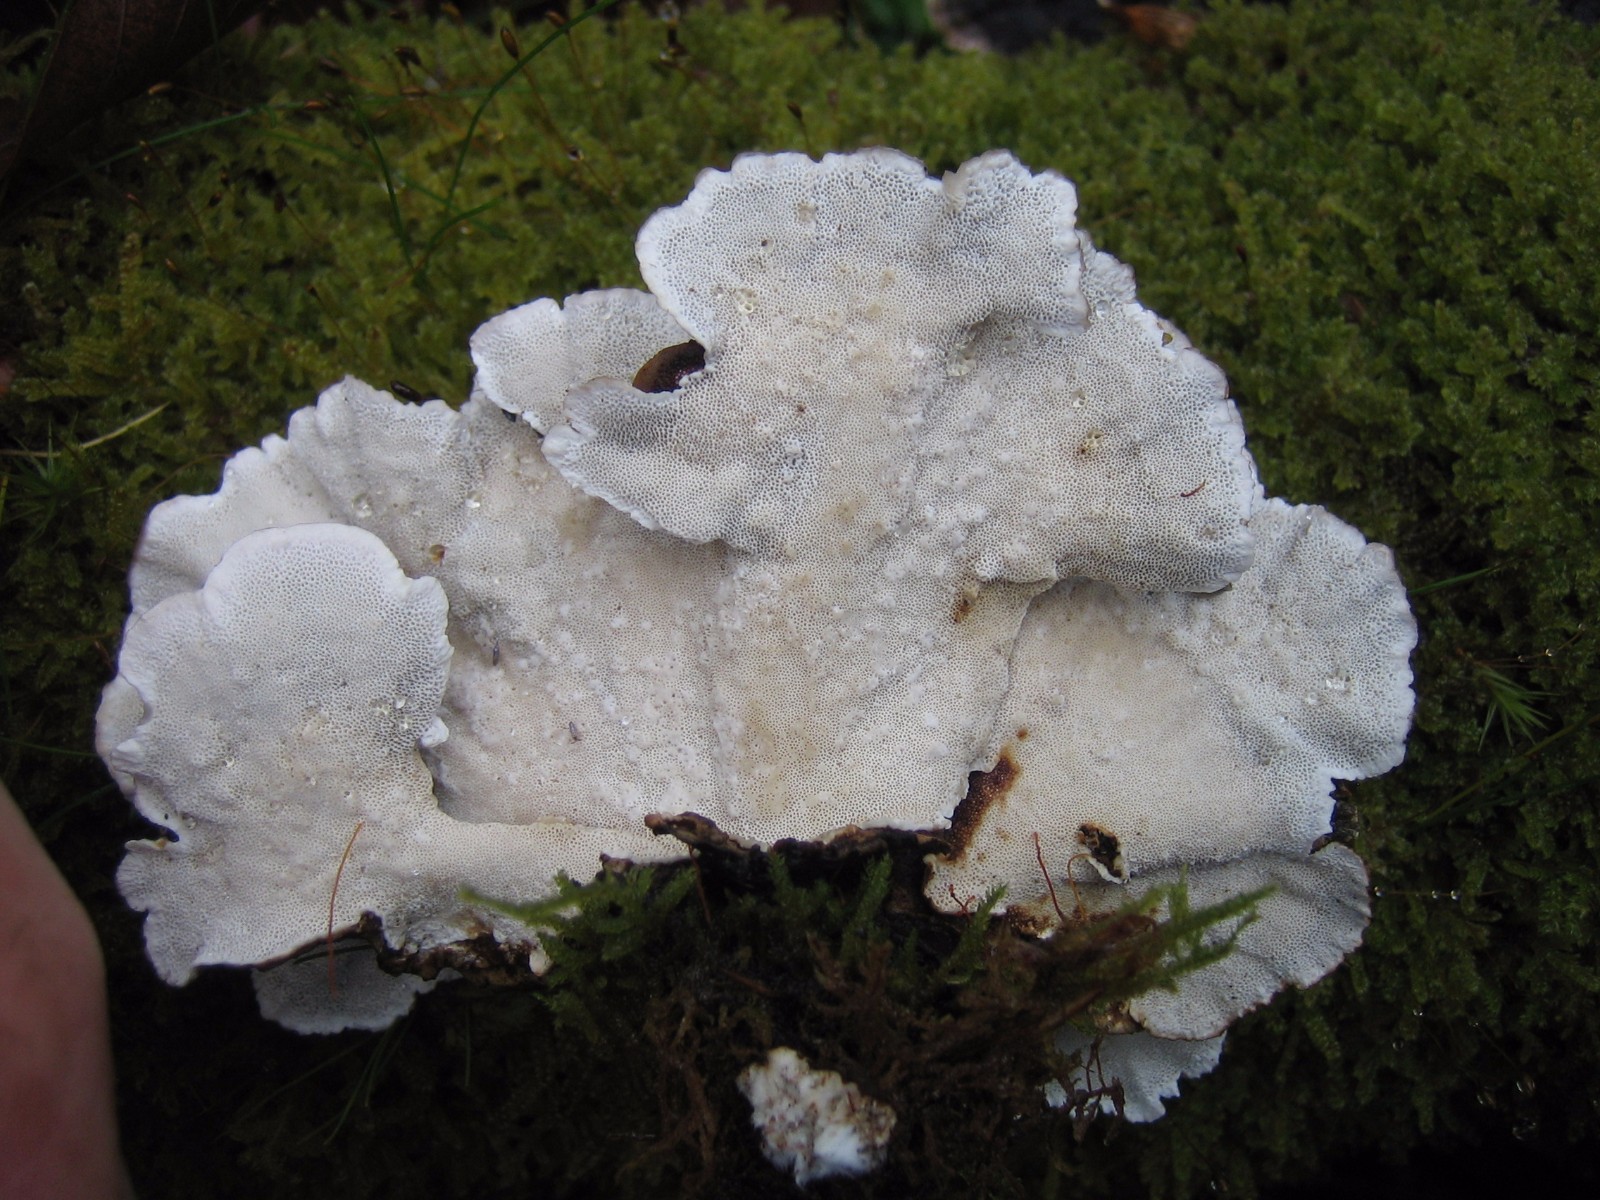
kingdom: Fungi
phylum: Basidiomycota
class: Agaricomycetes
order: Polyporales
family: Polyporaceae
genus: Trametes
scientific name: Trametes versicolor
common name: broget læderporesvamp
